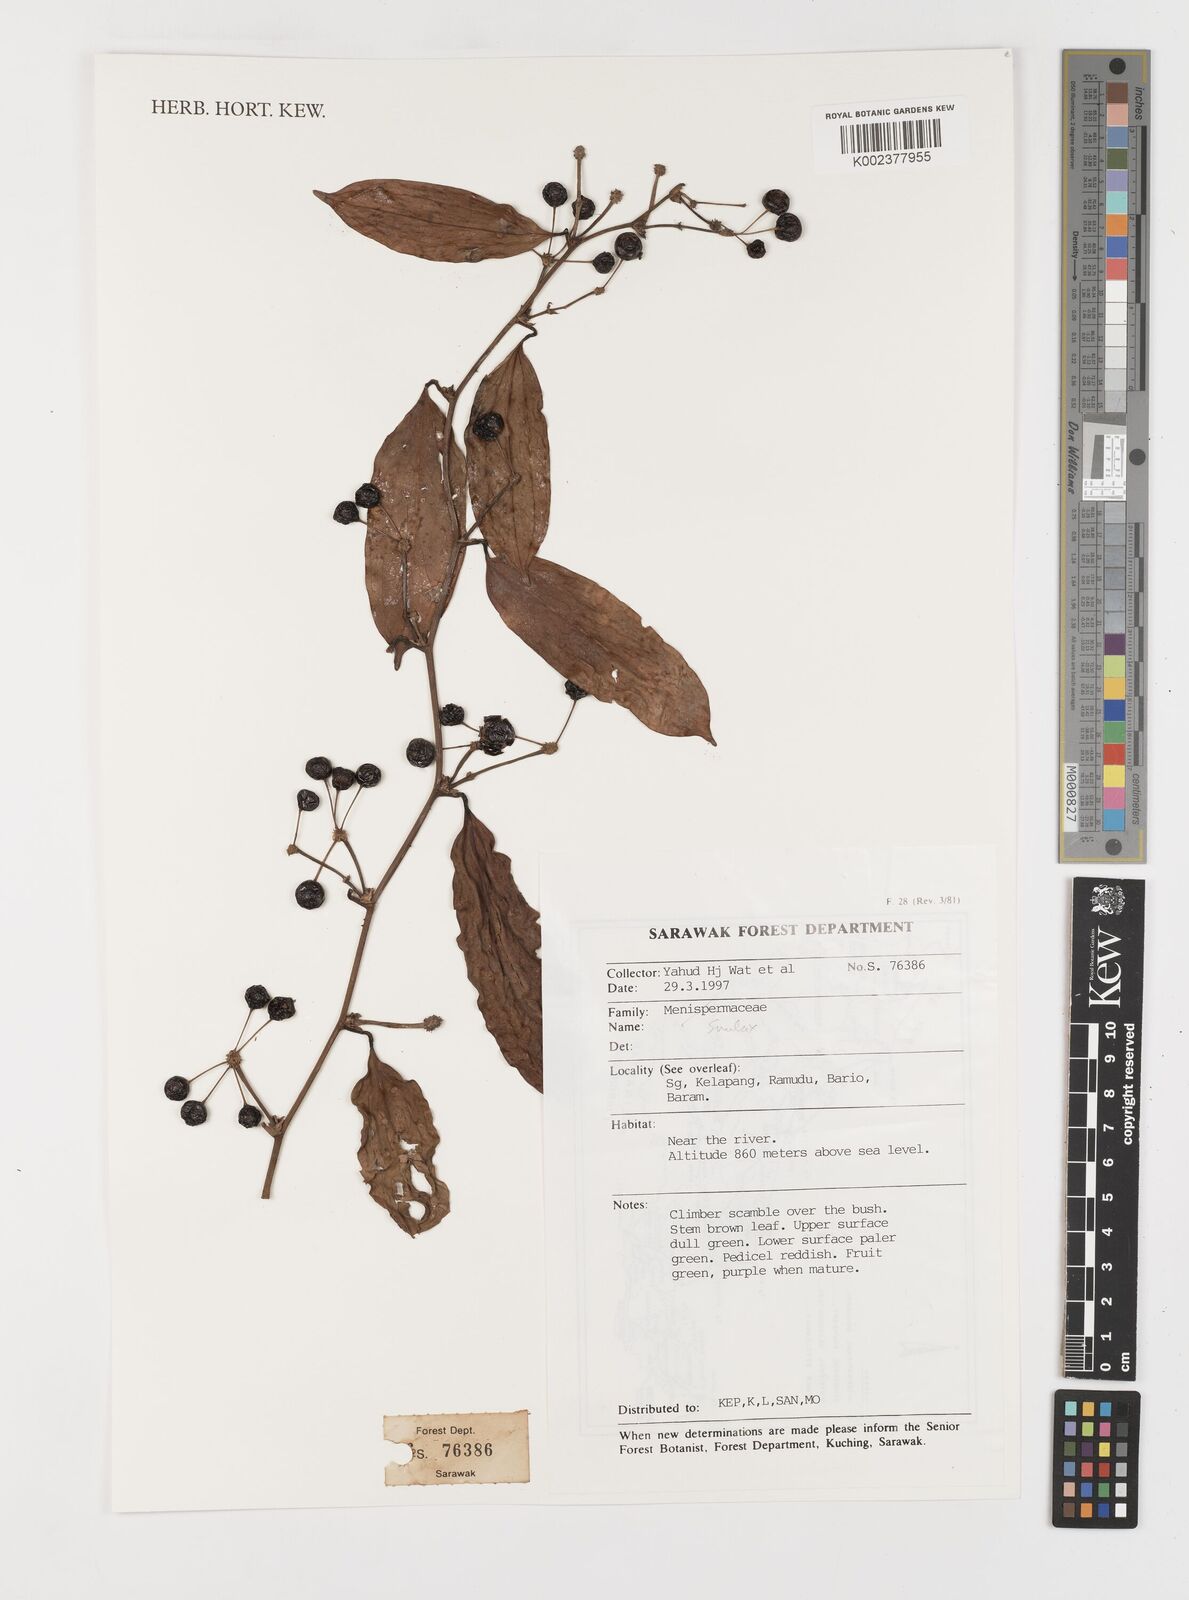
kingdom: Plantae
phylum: Tracheophyta
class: Liliopsida
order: Liliales
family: Smilacaceae
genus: Smilax
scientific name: Smilax
